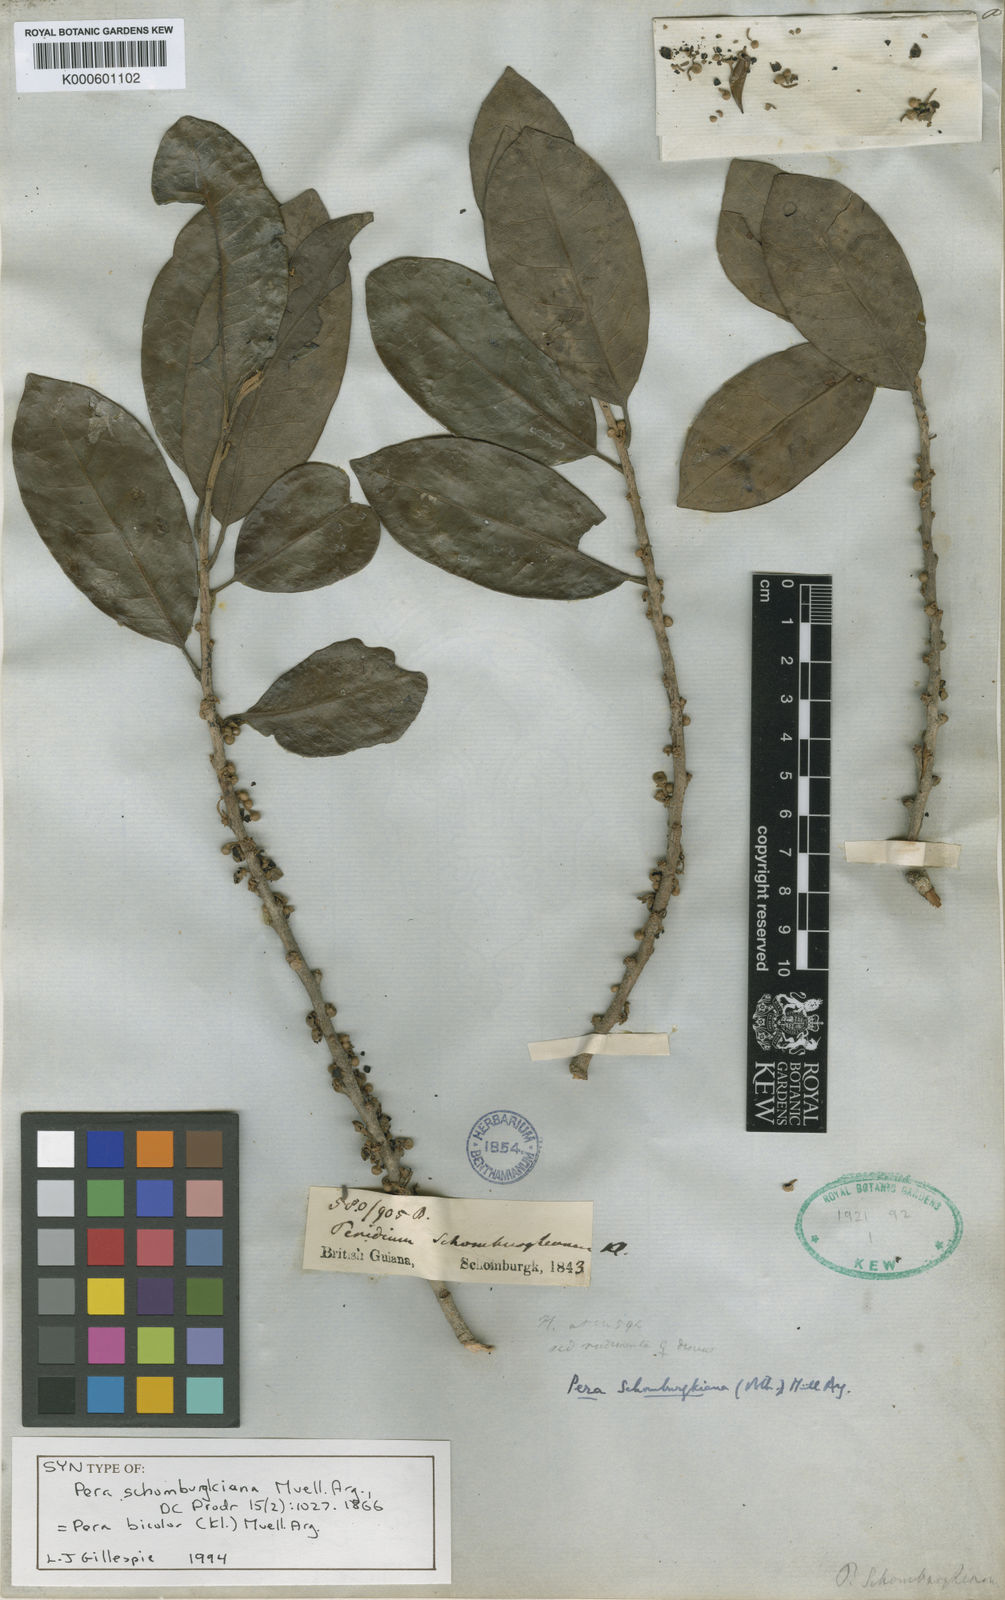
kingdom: Plantae
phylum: Tracheophyta
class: Magnoliopsida
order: Malpighiales
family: Peraceae
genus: Pera
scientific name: Pera
